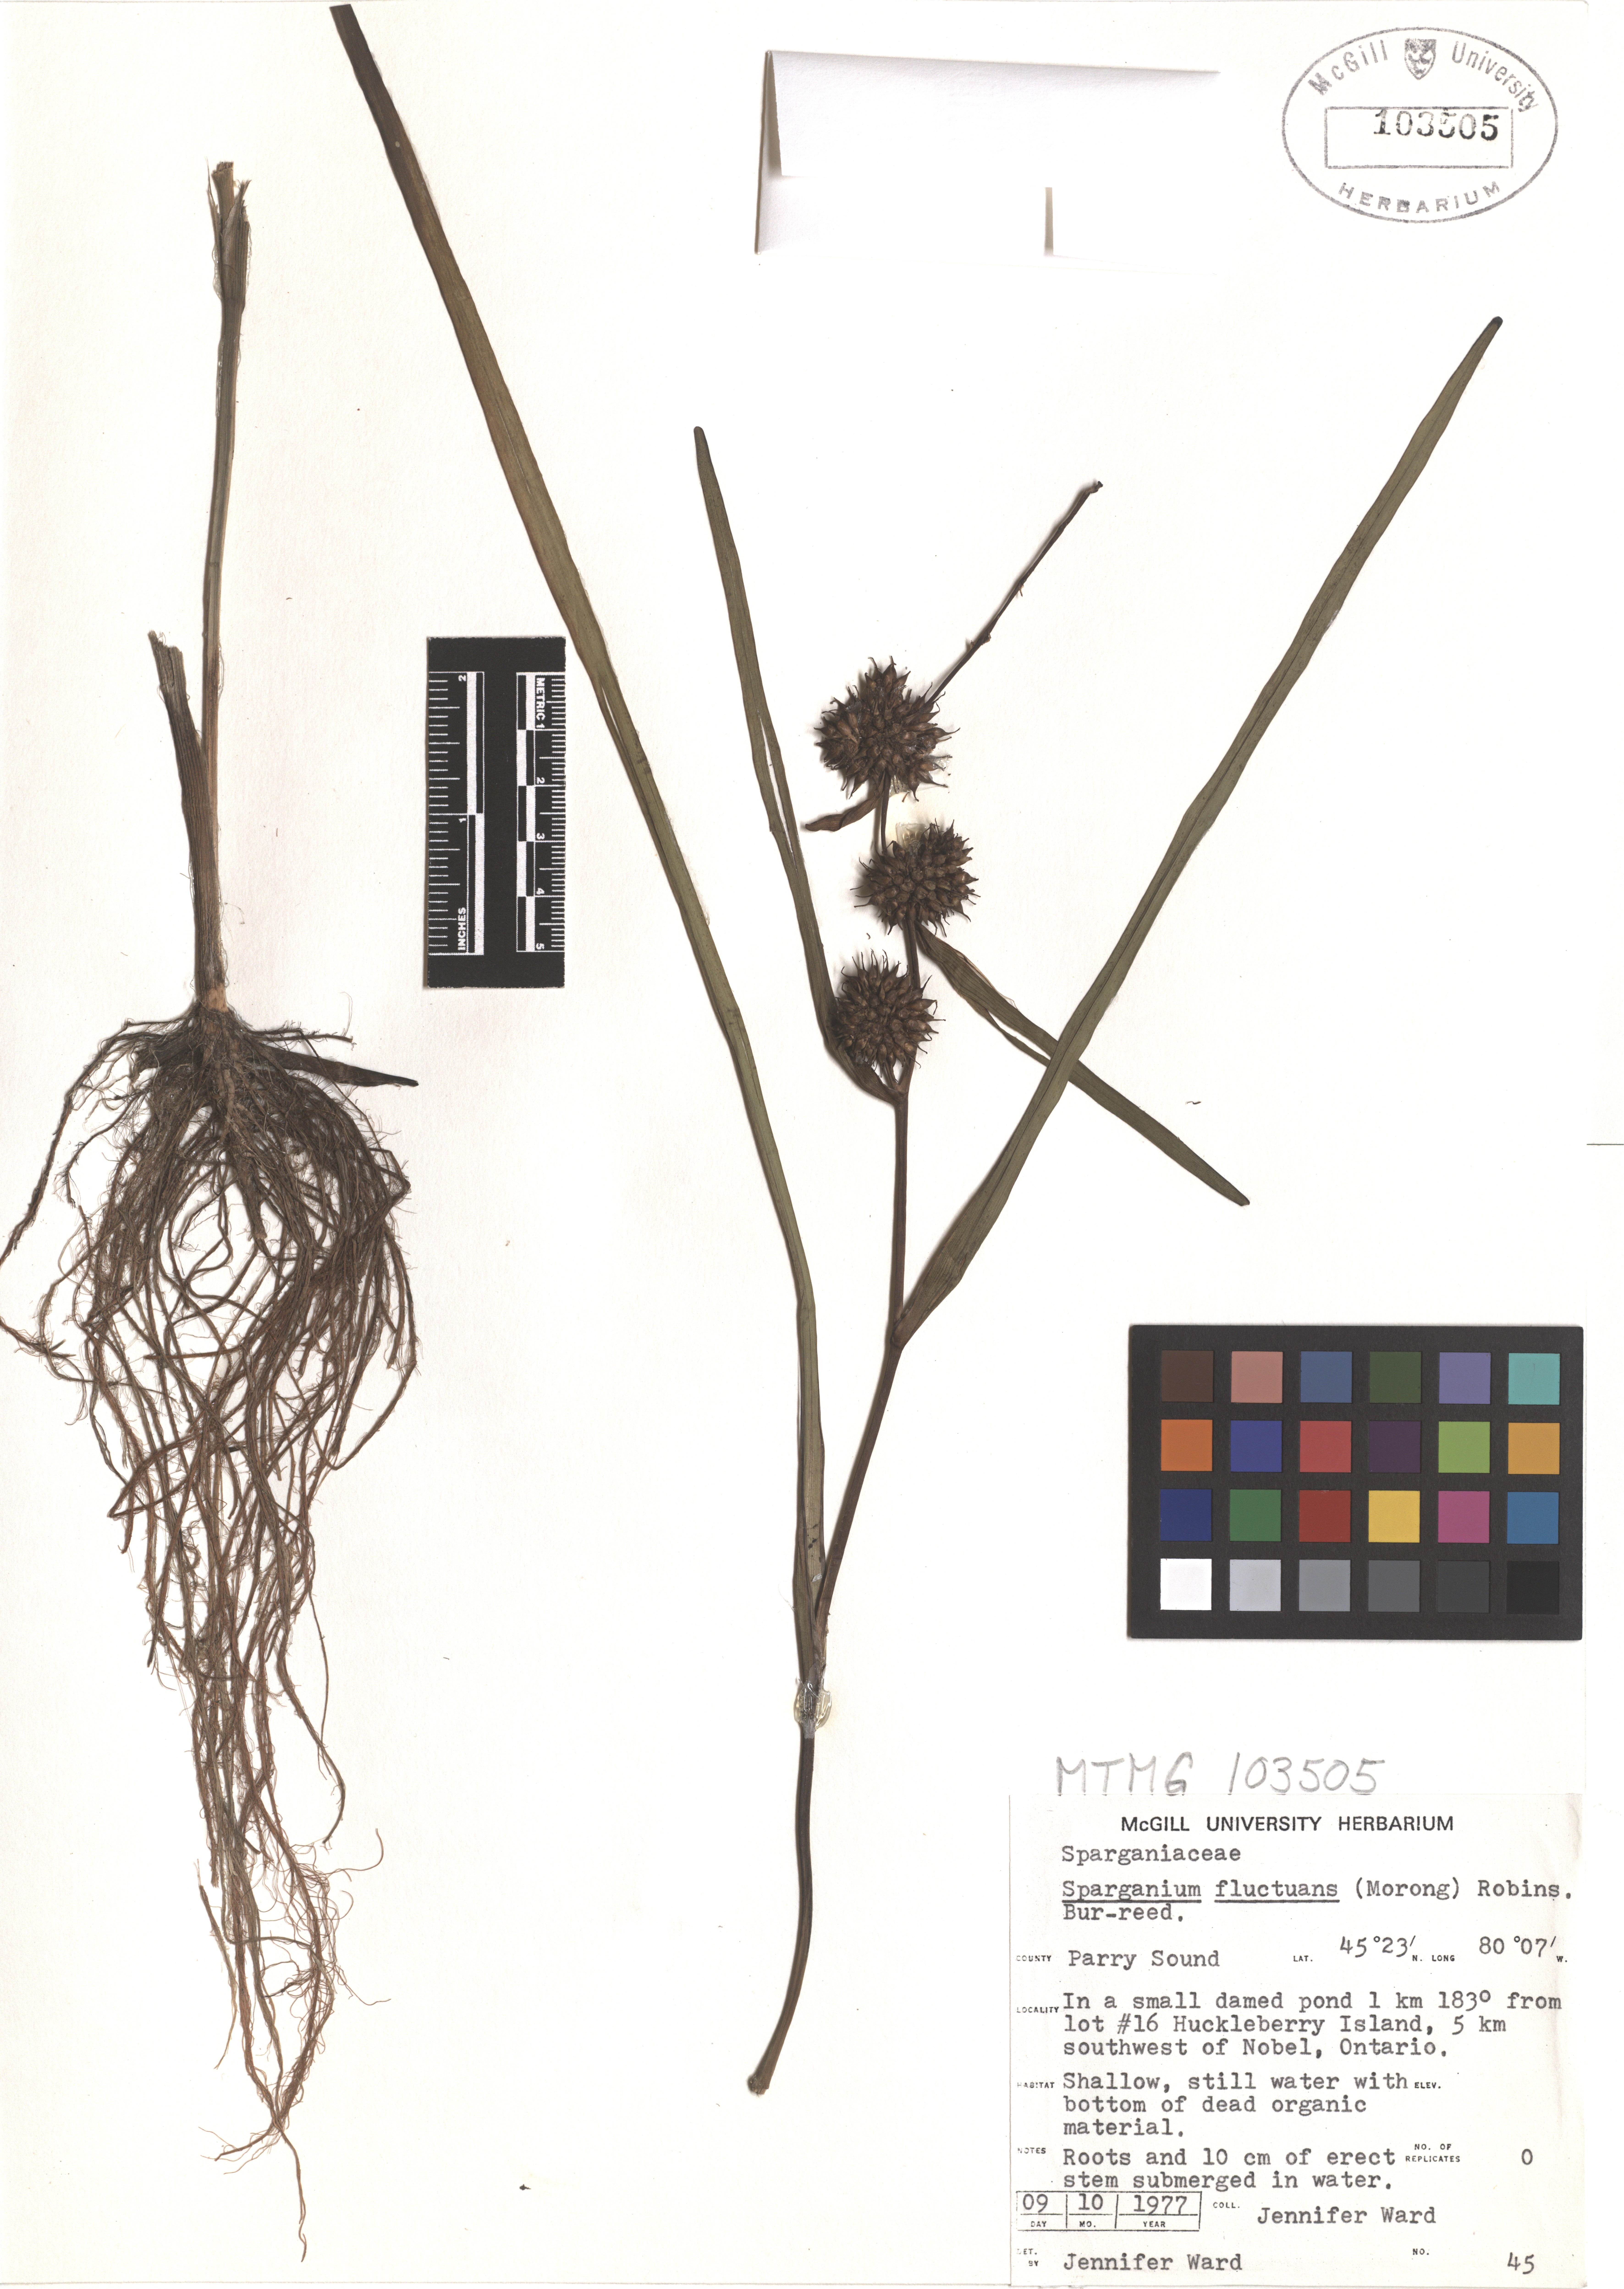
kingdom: Plantae
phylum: Tracheophyta
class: Liliopsida
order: Poales
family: Typhaceae
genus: Sparganium
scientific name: Sparganium fluctuans
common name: Floating burreed
